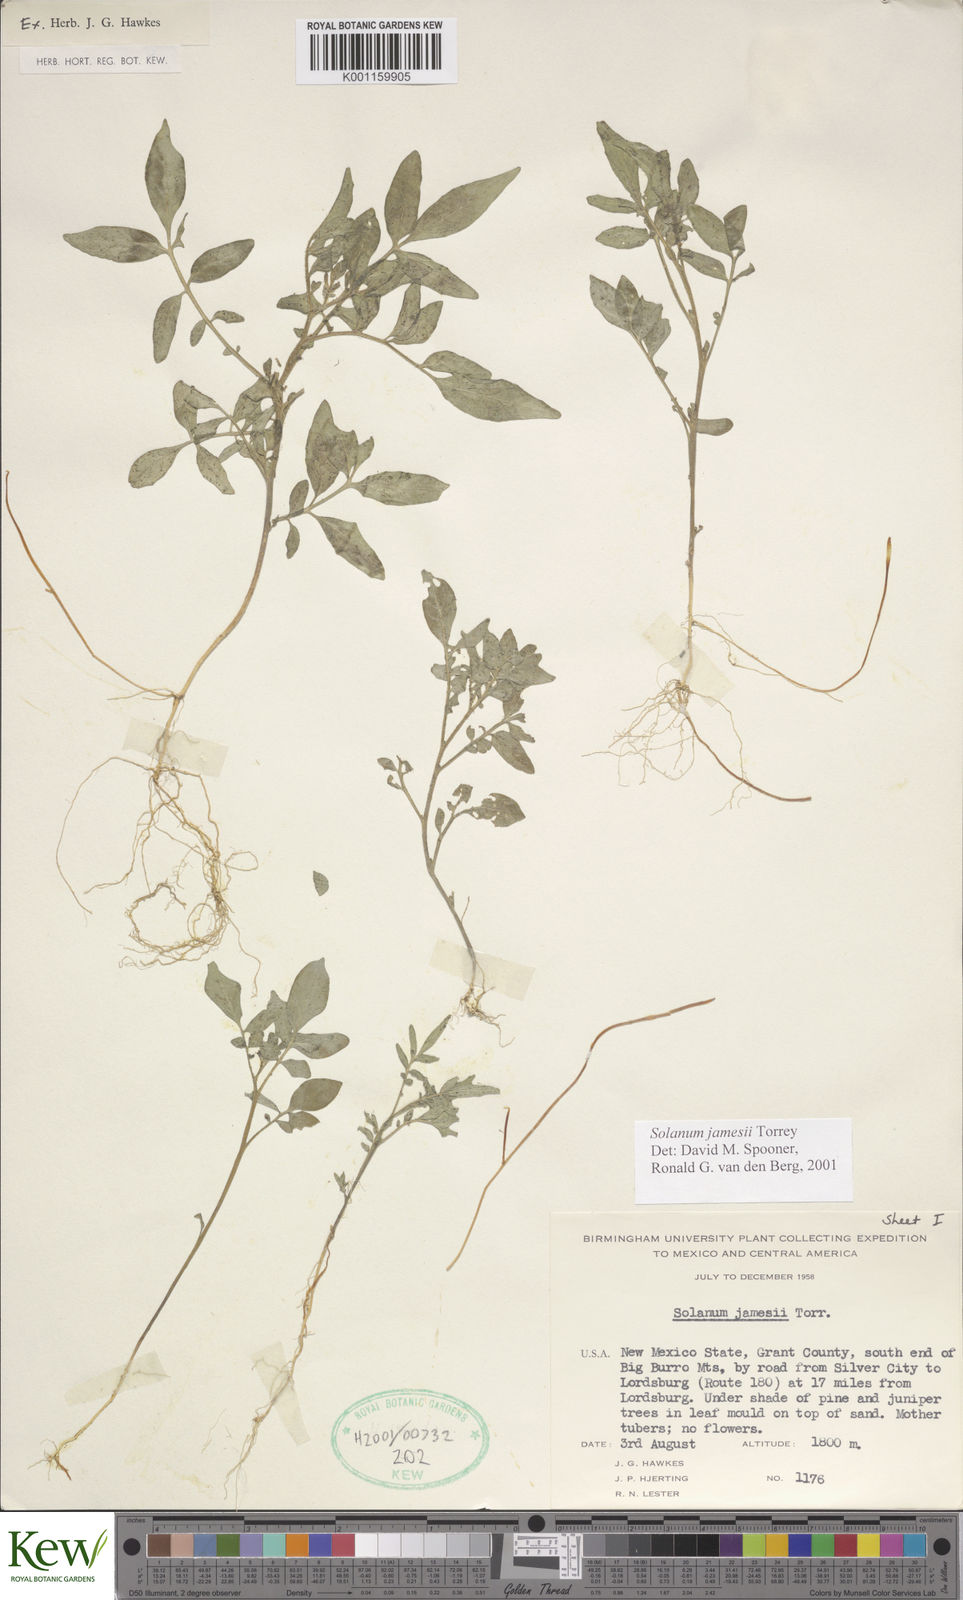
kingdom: Plantae
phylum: Tracheophyta
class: Magnoliopsida
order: Solanales
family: Solanaceae
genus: Solanum
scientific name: Solanum jamesii
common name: Wild potato
